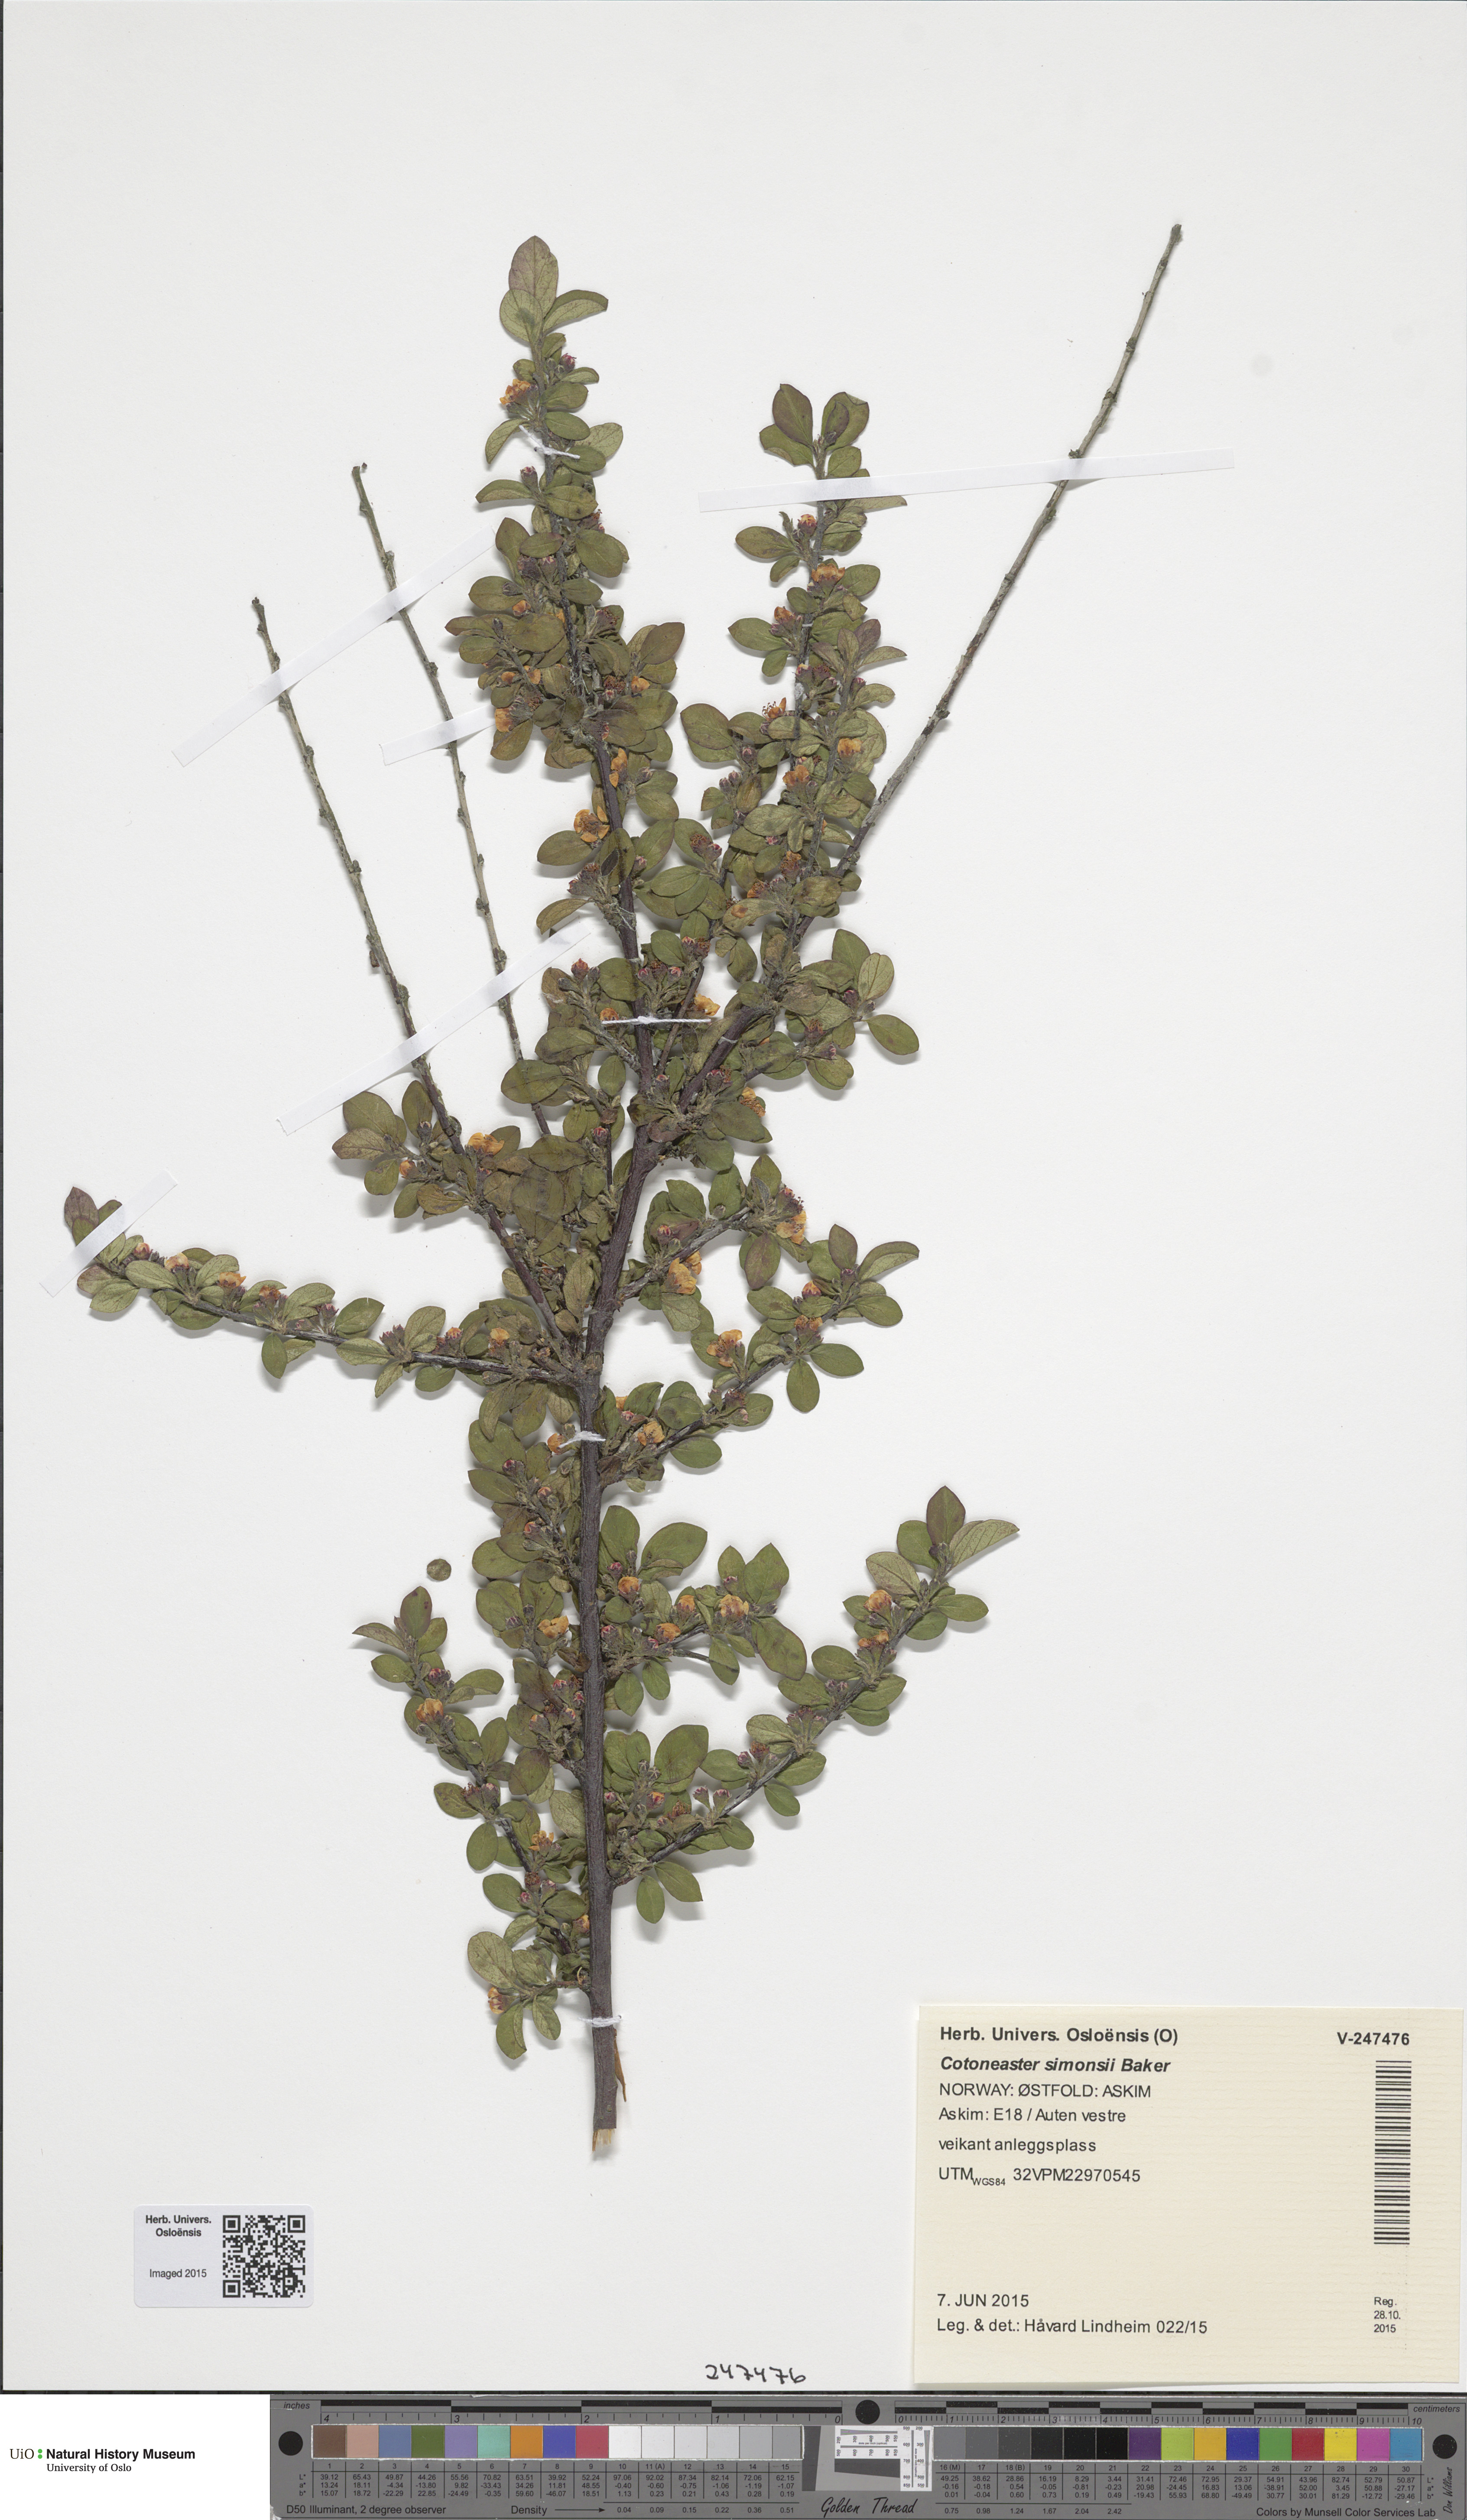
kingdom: Plantae
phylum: Tracheophyta
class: Magnoliopsida
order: Rosales
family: Rosaceae
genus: Cotoneaster
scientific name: Cotoneaster symondsii
